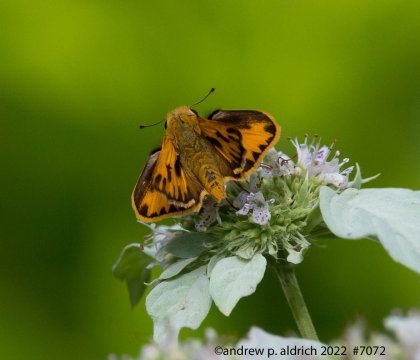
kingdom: Animalia
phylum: Arthropoda
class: Insecta
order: Lepidoptera
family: Hesperiidae
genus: Hylephila
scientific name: Hylephila phyleus
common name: Fiery Skipper
